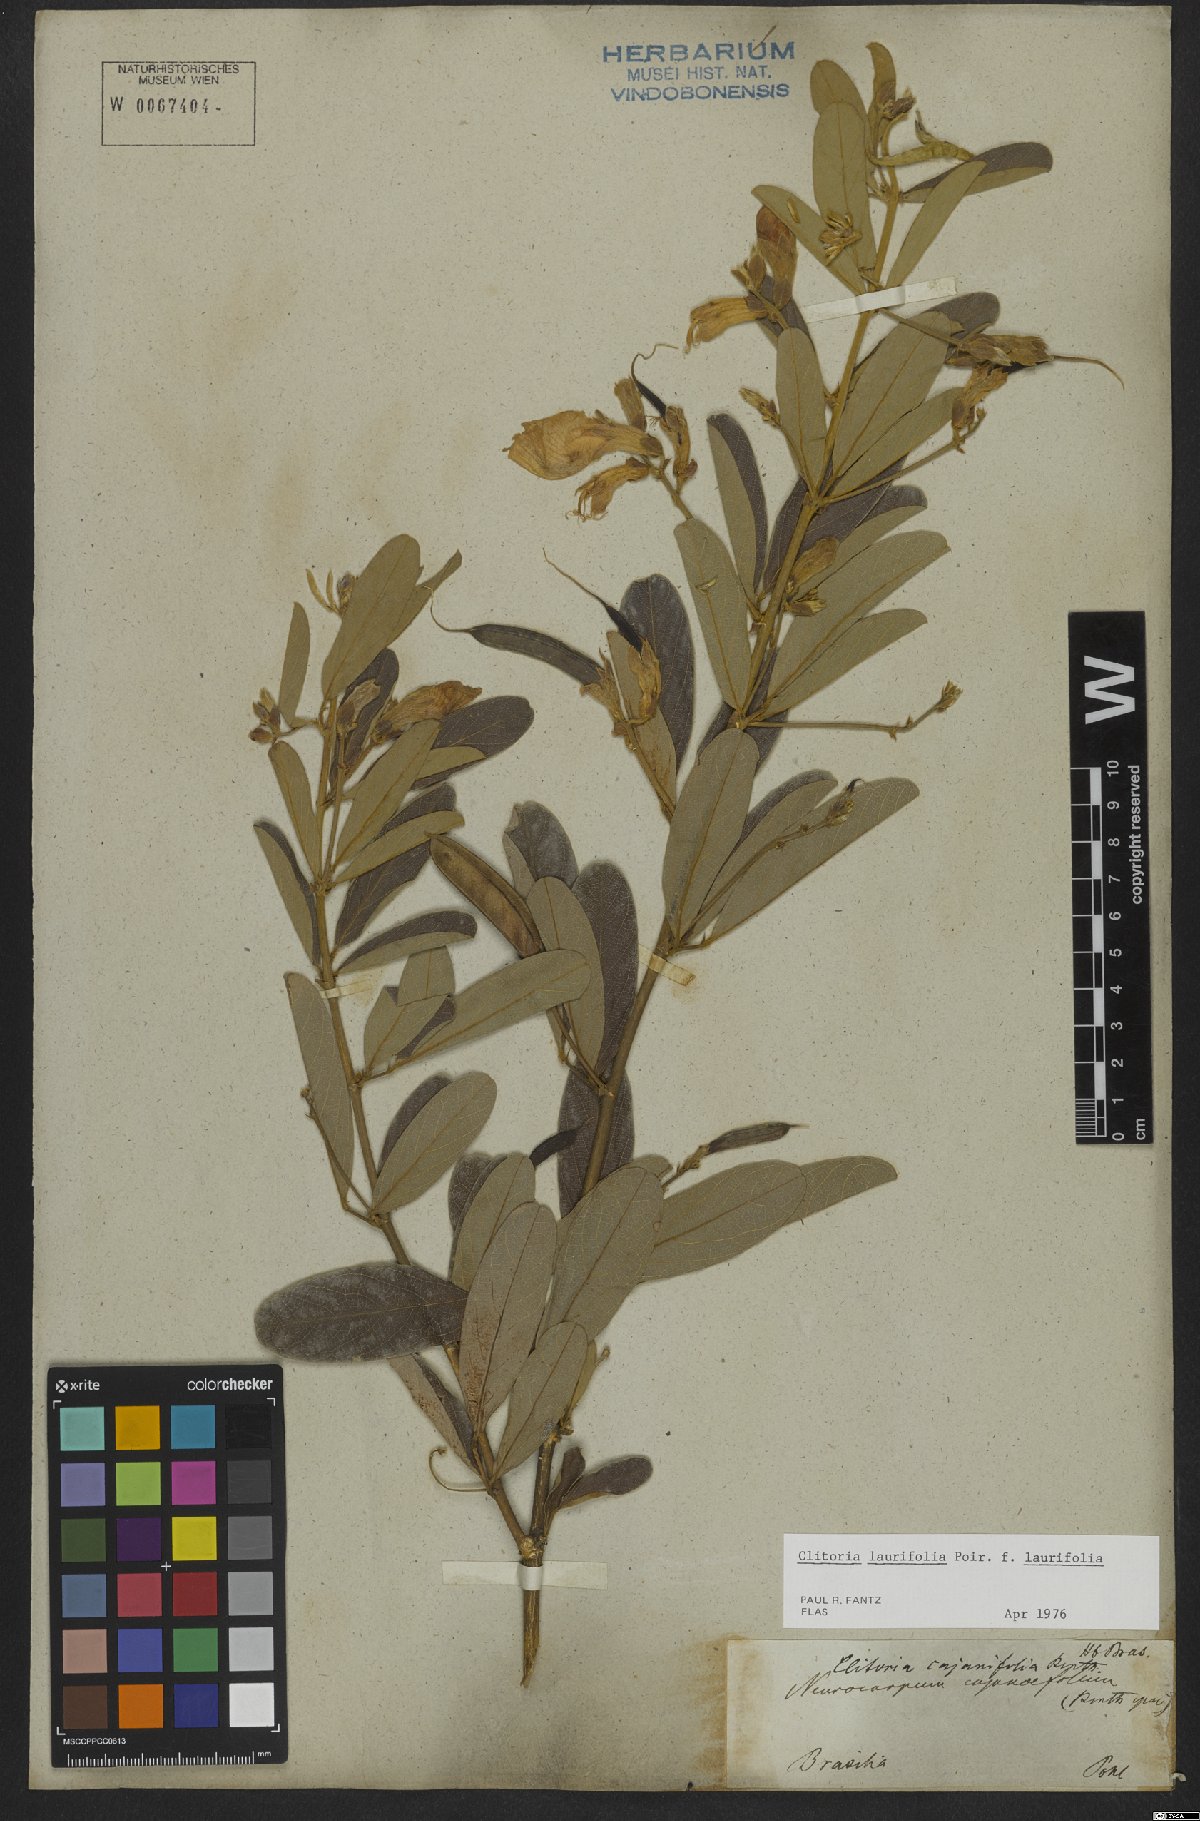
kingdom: Plantae
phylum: Tracheophyta
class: Magnoliopsida
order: Fabales
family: Fabaceae
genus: Clitoria
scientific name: Clitoria laurifolia
